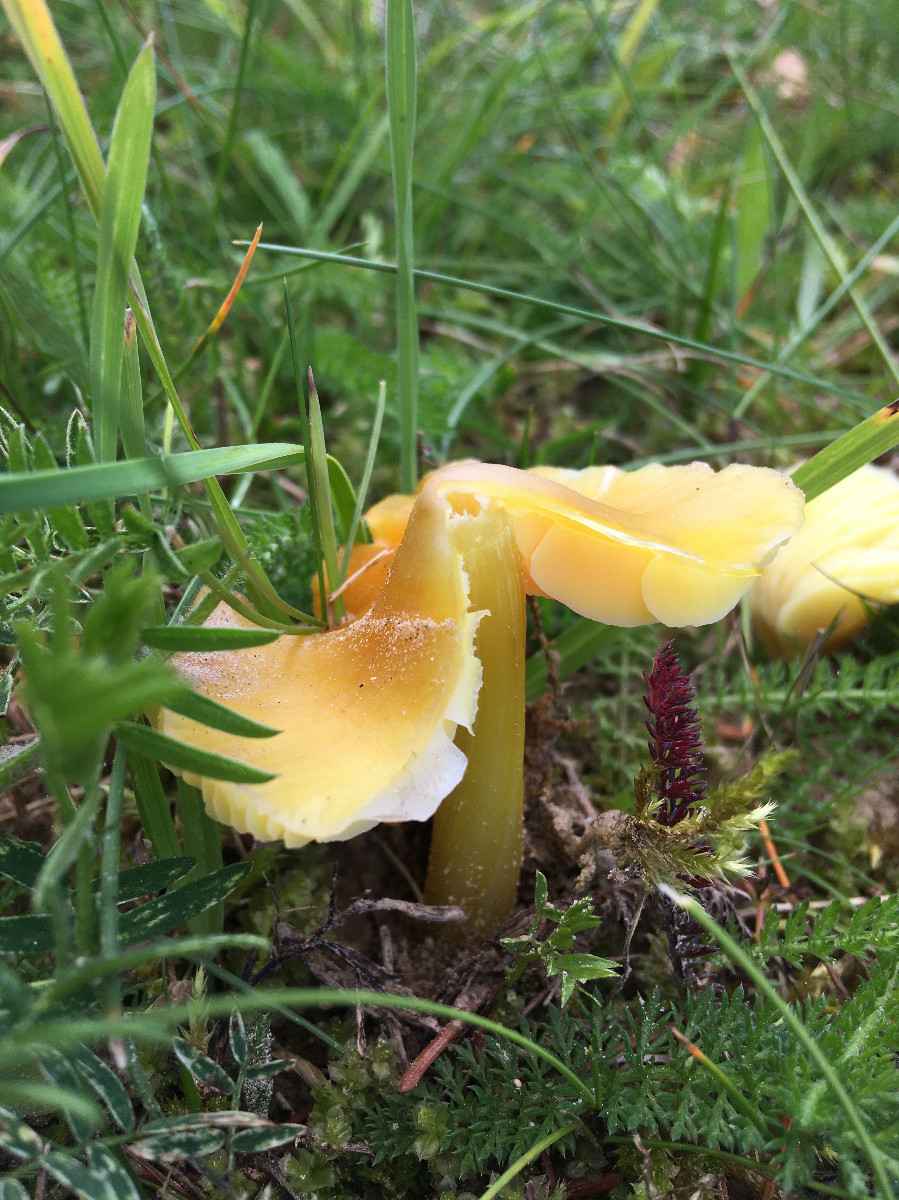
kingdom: Fungi
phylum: Basidiomycota
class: Agaricomycetes
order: Agaricales
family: Hygrophoraceae
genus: Hygrocybe
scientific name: Hygrocybe
